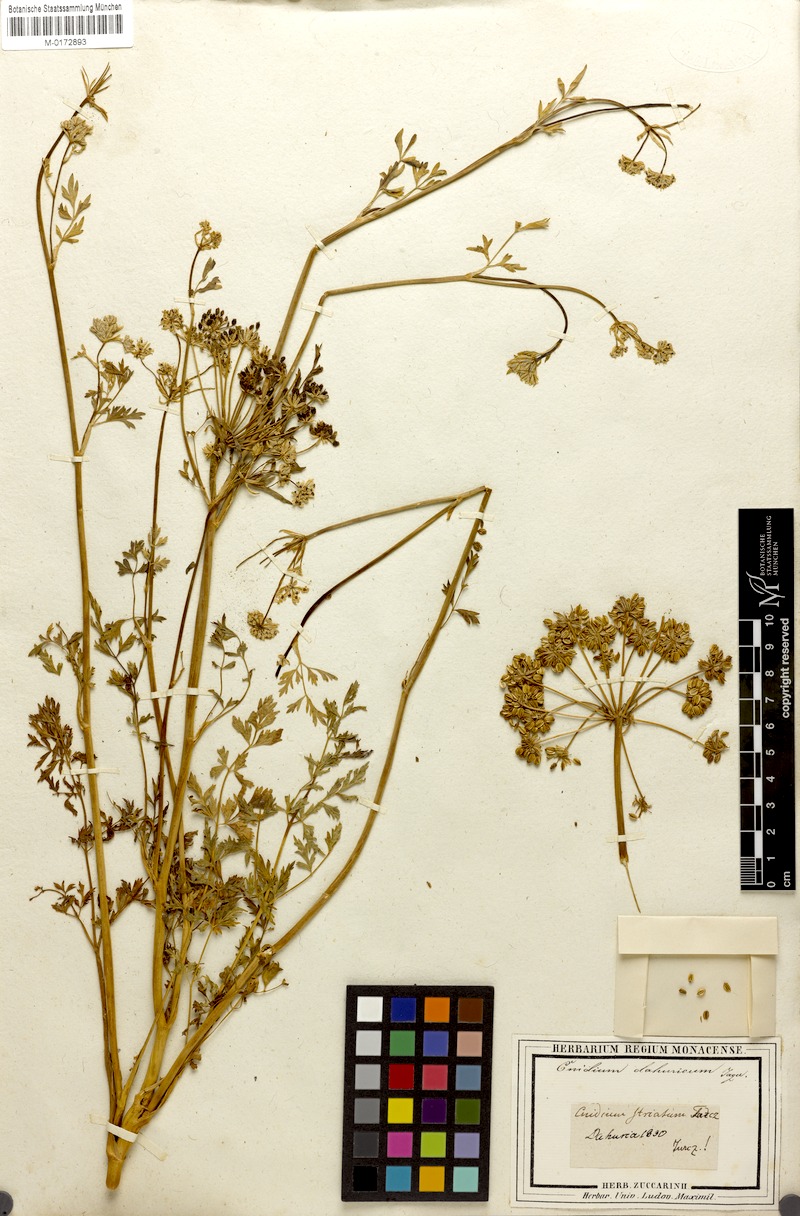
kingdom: Plantae
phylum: Tracheophyta
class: Magnoliopsida
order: Apiales
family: Apiaceae
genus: Cnidium
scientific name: Cnidium dahuricum
